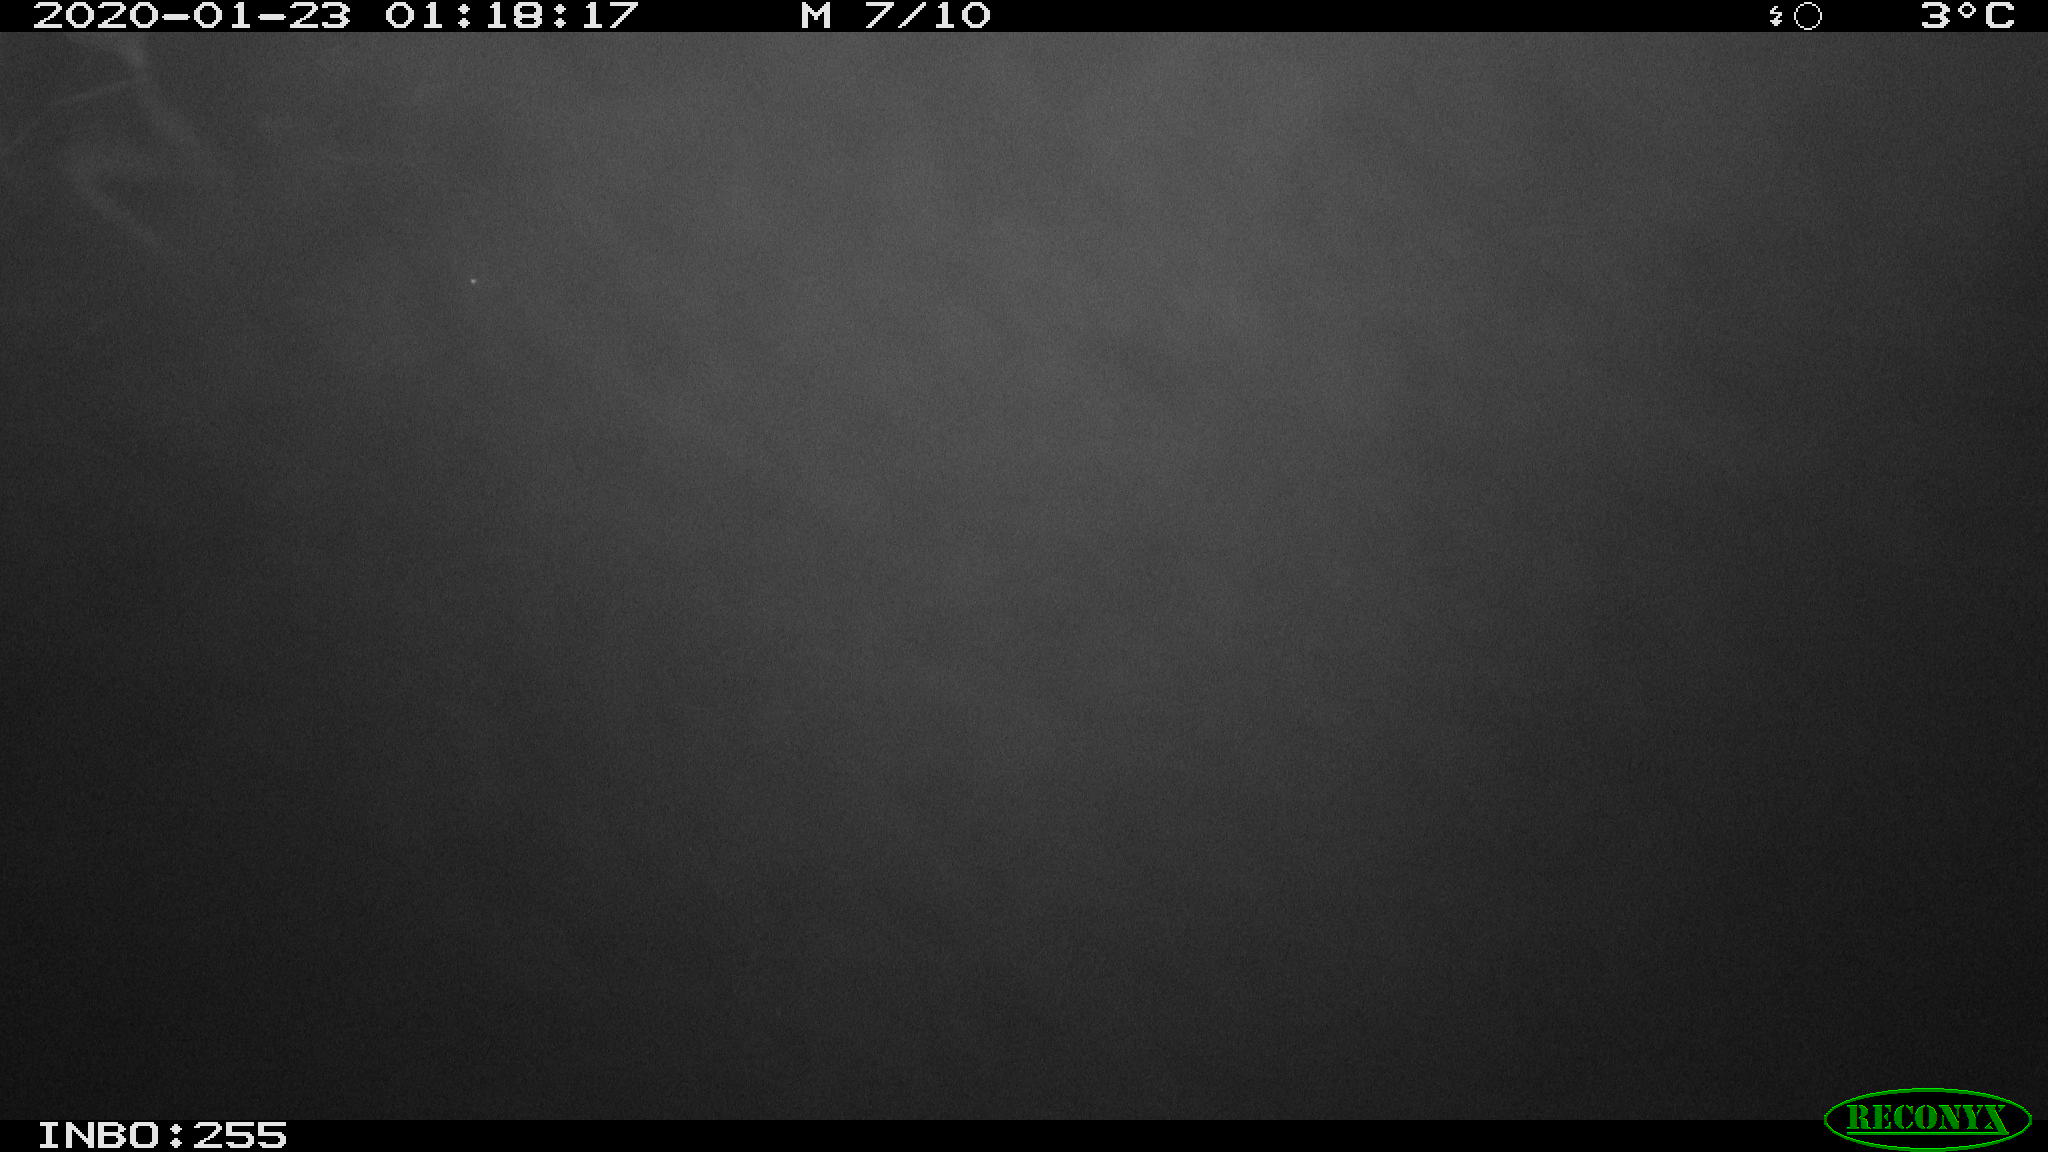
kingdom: Animalia
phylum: Chordata
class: Mammalia
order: Rodentia
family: Cricetidae
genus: Ondatra
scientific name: Ondatra zibethicus
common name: Muskrat
